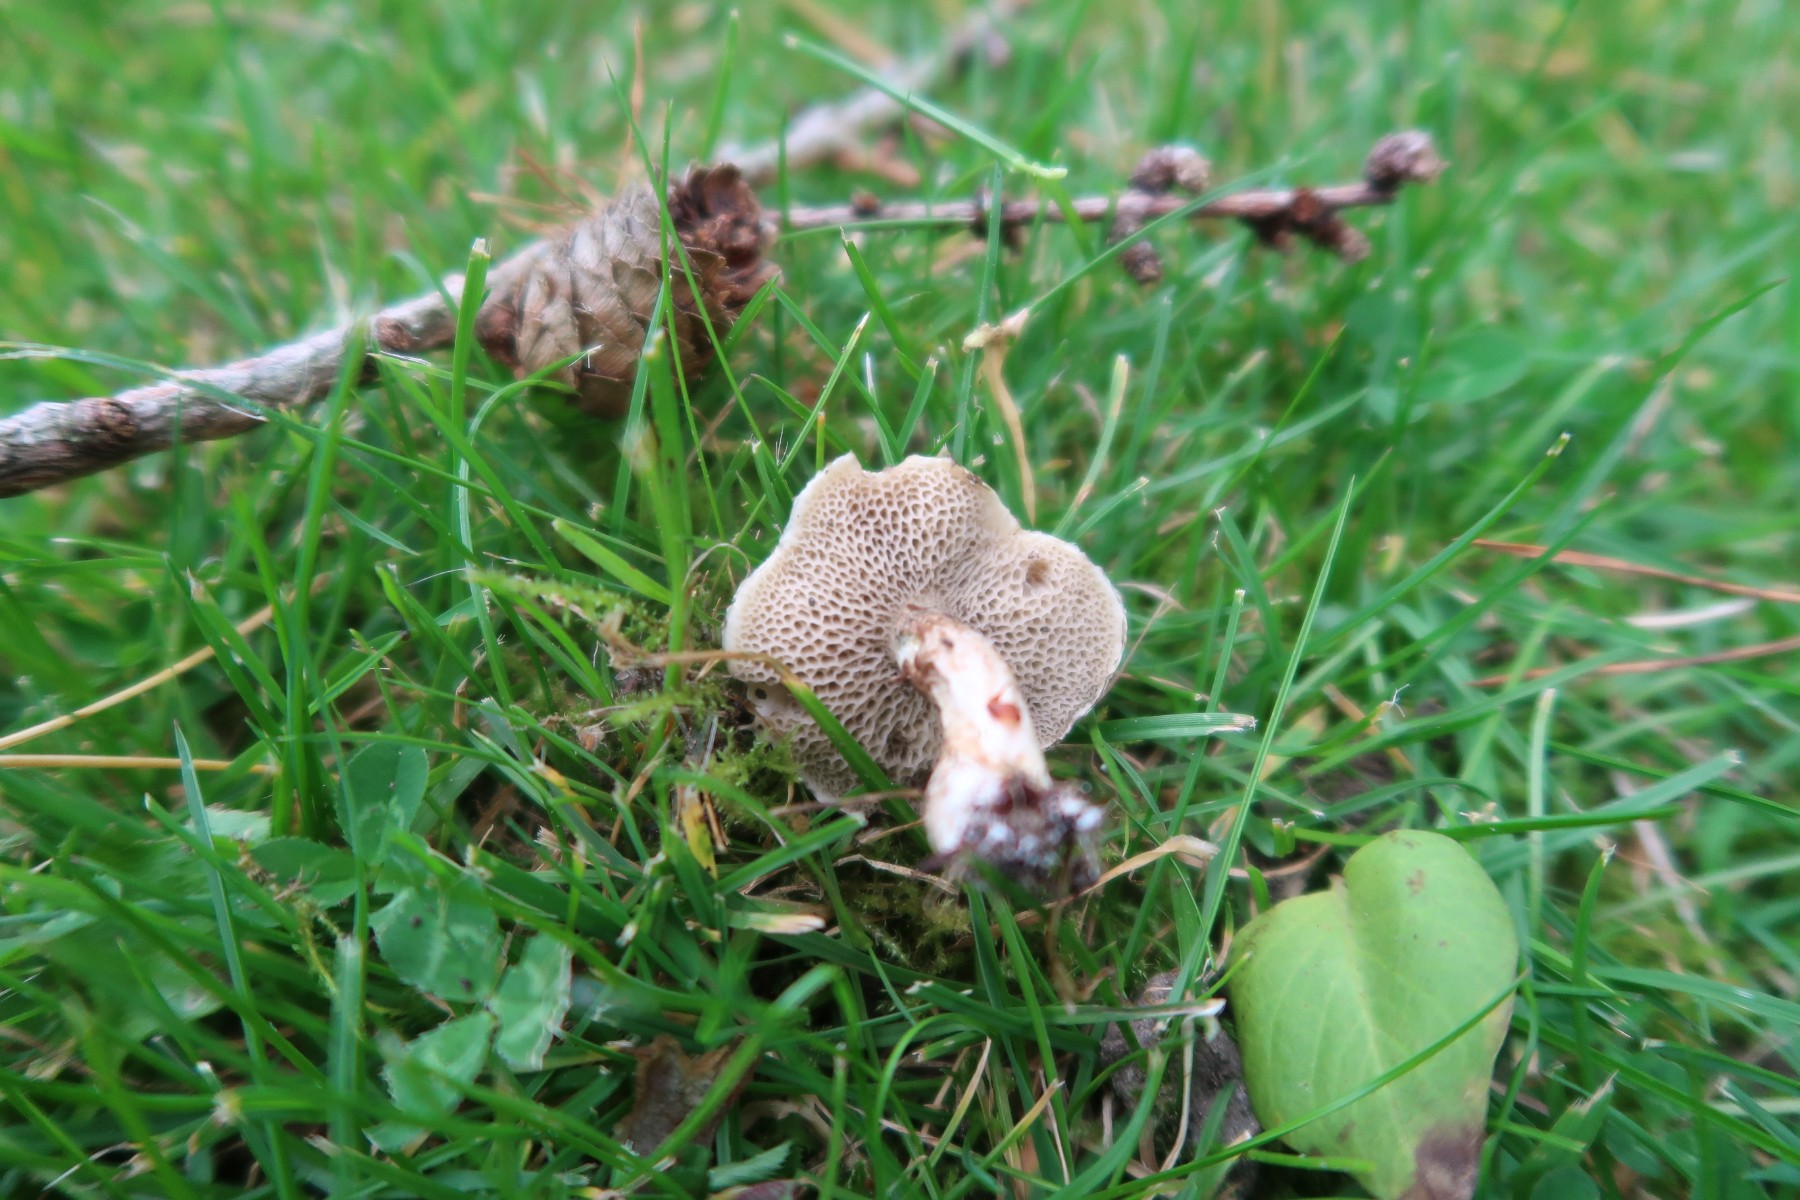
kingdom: Fungi
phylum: Basidiomycota
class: Agaricomycetes
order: Boletales
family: Suillaceae
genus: Suillus
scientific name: Suillus viscidus
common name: olivengrå slimrørhat
